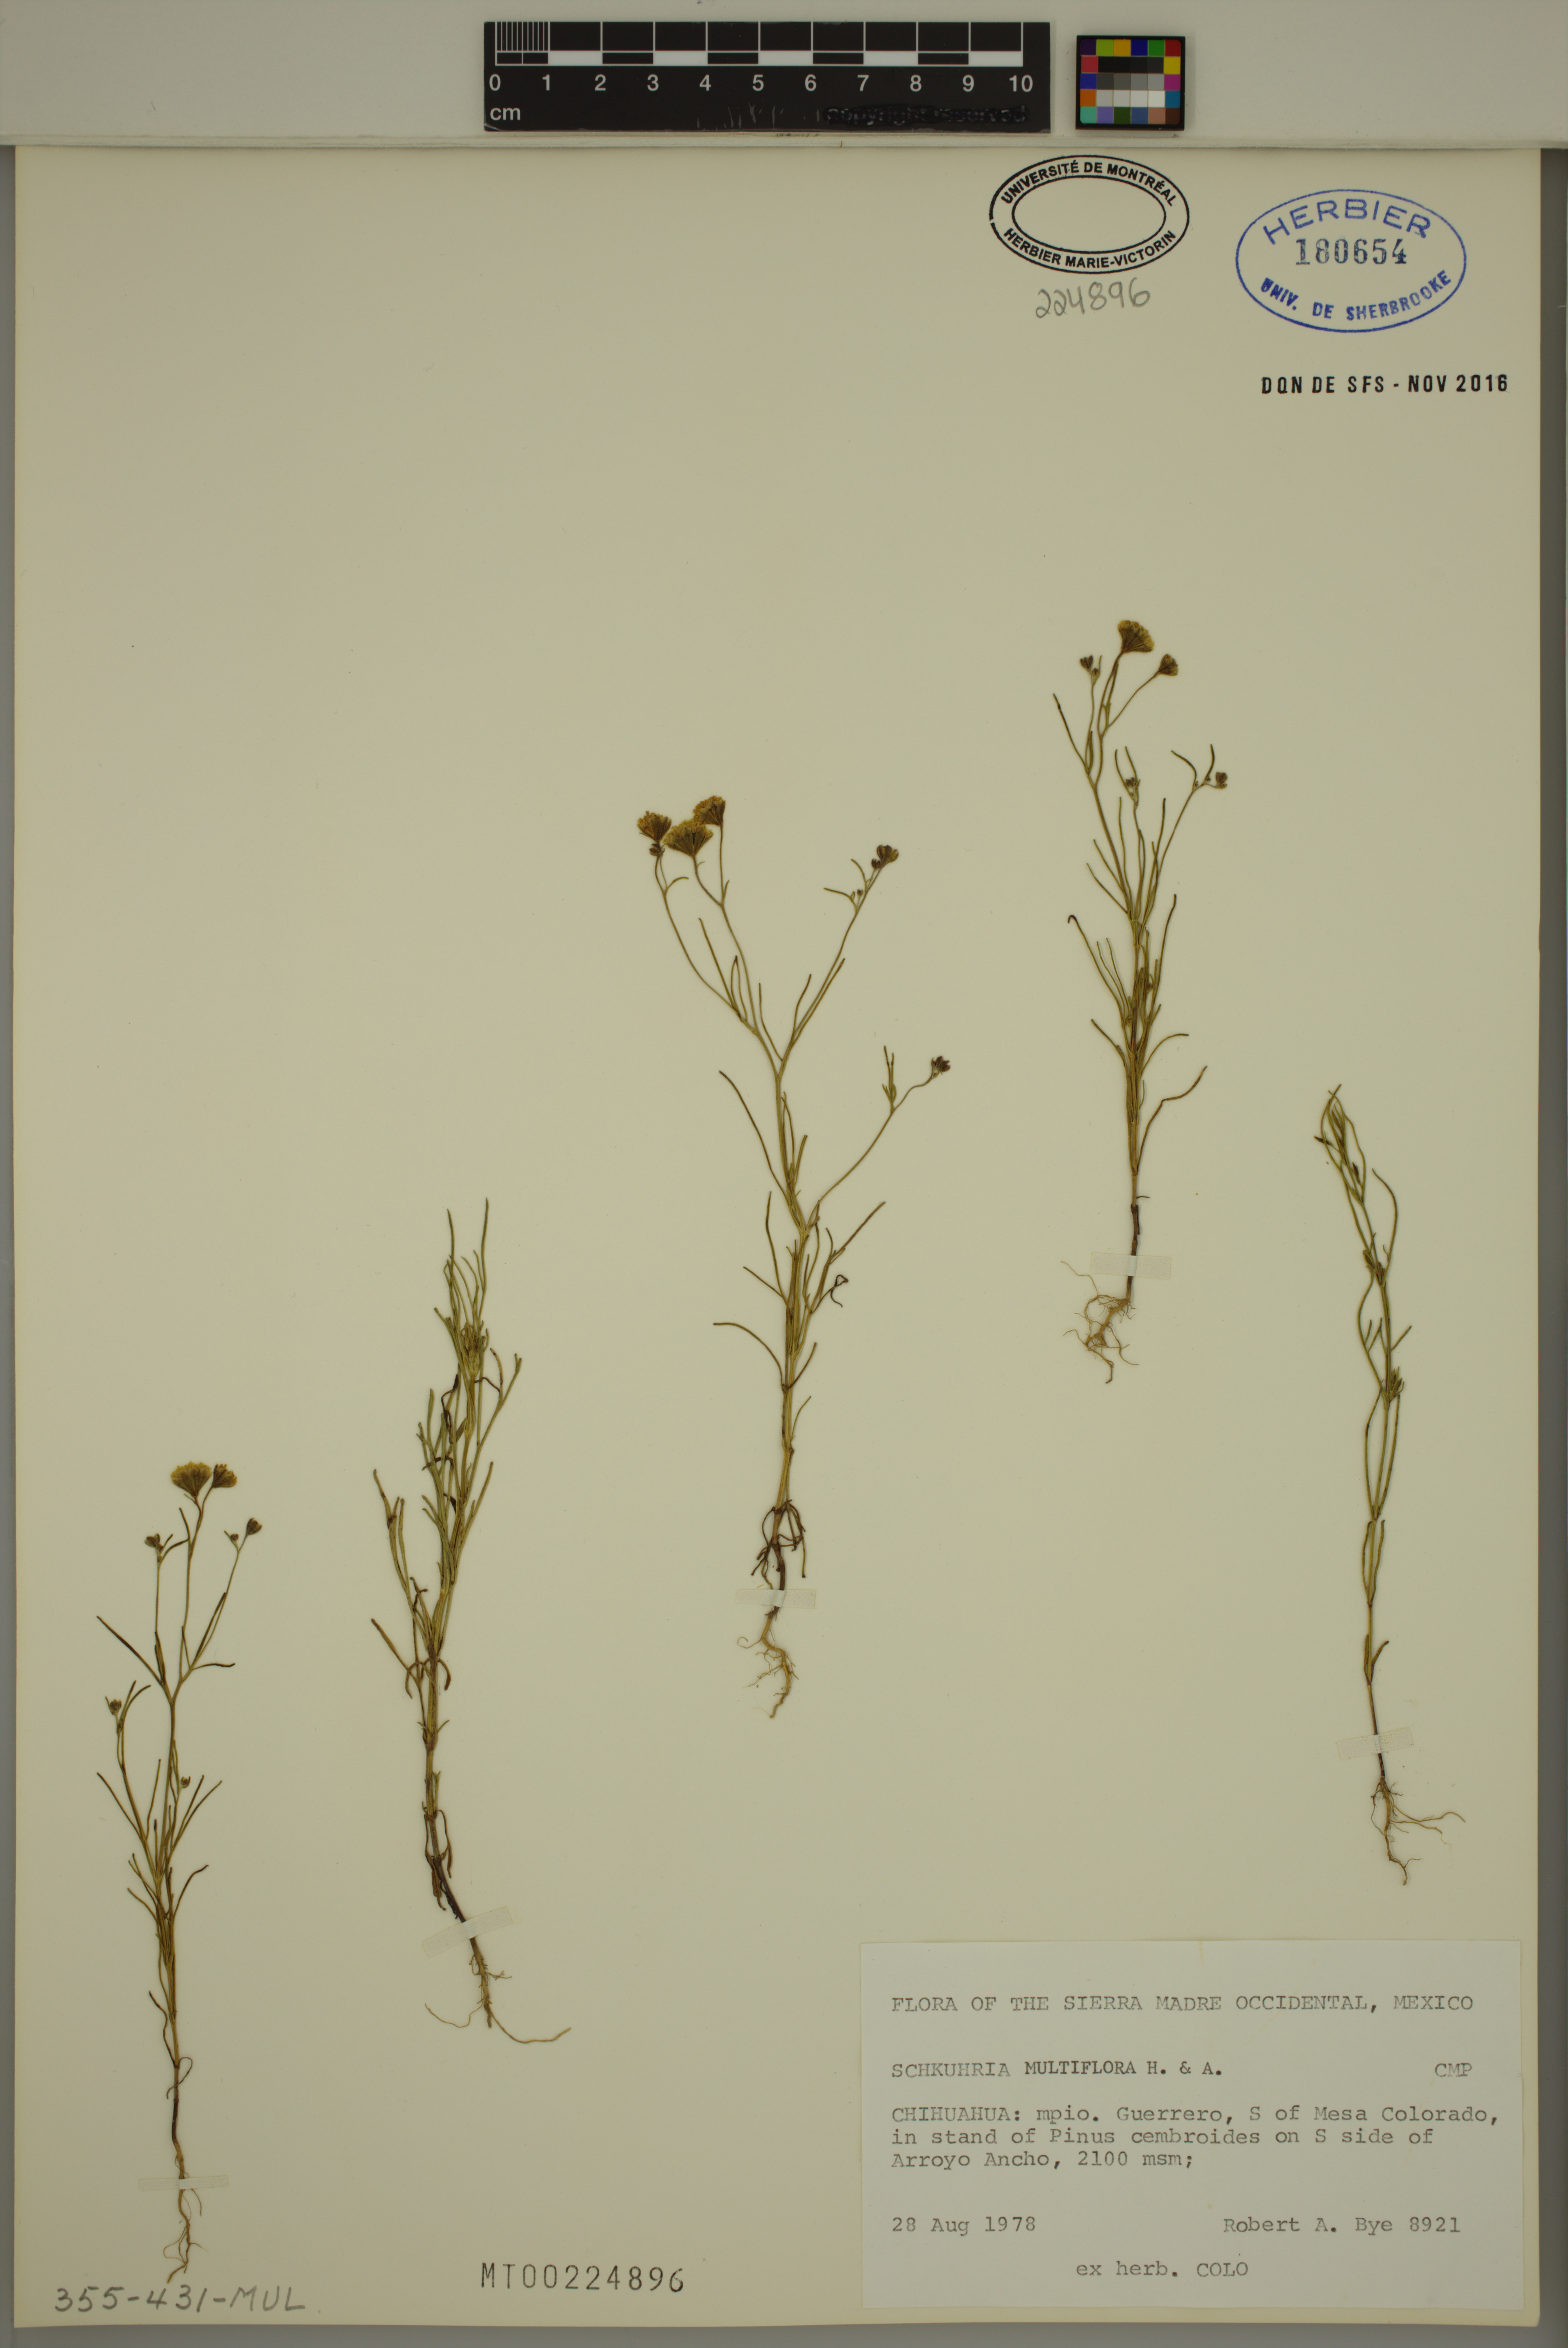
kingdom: Plantae
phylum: Tracheophyta
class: Magnoliopsida
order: Asterales
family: Asteraceae
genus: Picradeniopsis
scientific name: Picradeniopsis multiflora
